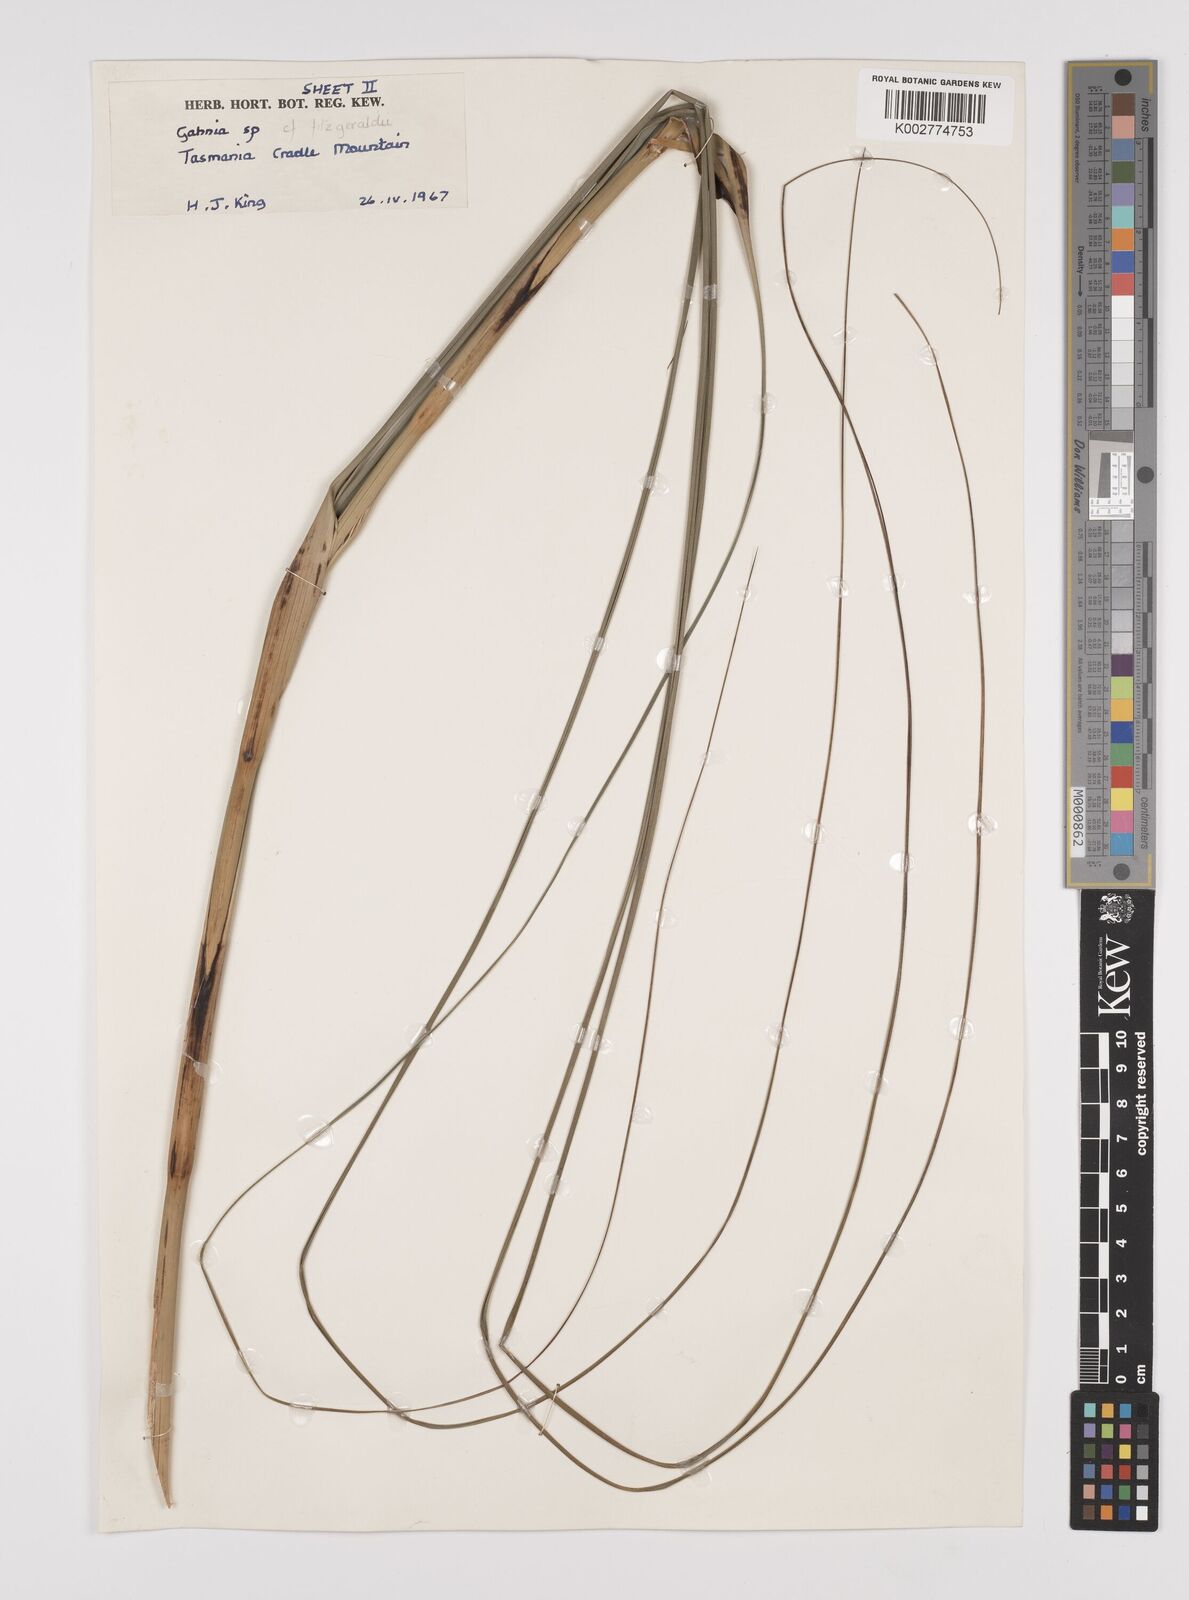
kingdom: Plantae
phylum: Tracheophyta
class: Liliopsida
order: Poales
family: Cyperaceae
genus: Gahnia
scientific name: Gahnia
